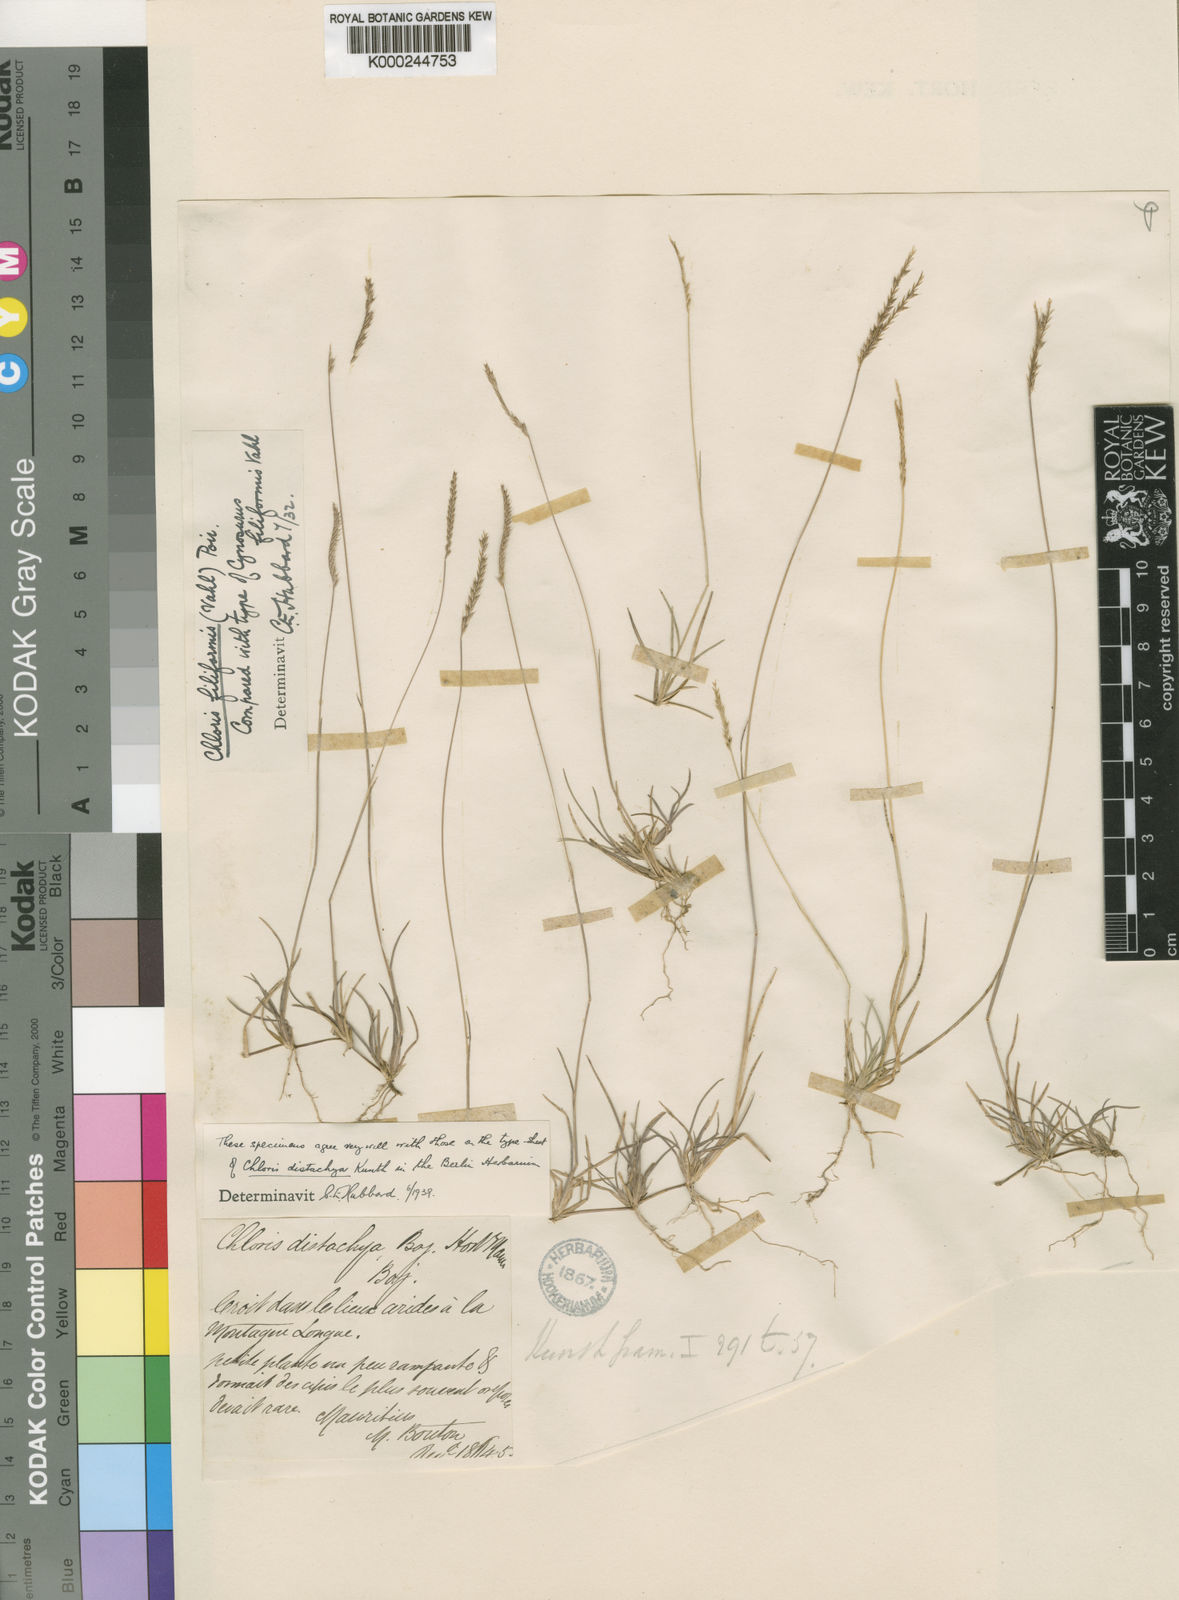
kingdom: Plantae
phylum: Tracheophyta
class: Liliopsida
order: Poales
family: Poaceae
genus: Chloris
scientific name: Chloris filiformis
